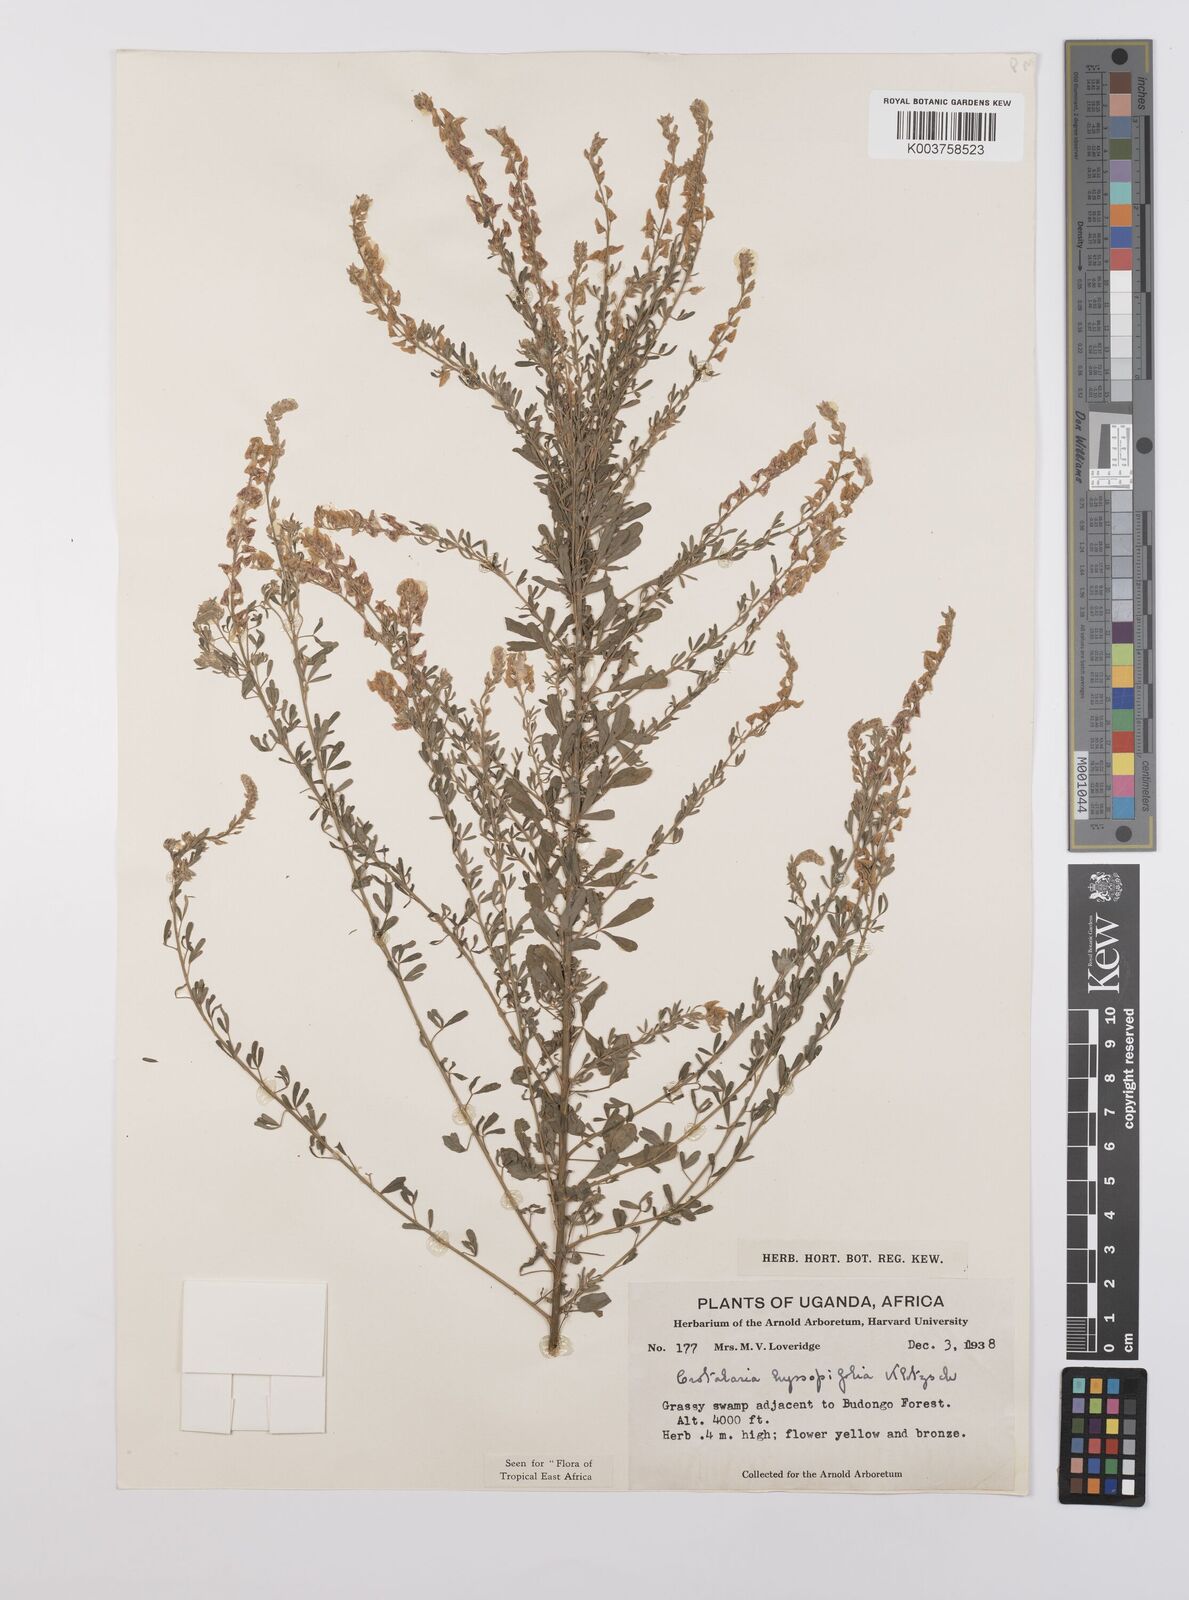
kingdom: Plantae
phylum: Tracheophyta
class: Magnoliopsida
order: Fabales
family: Fabaceae
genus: Crotalaria
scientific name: Crotalaria hyssopifolia
